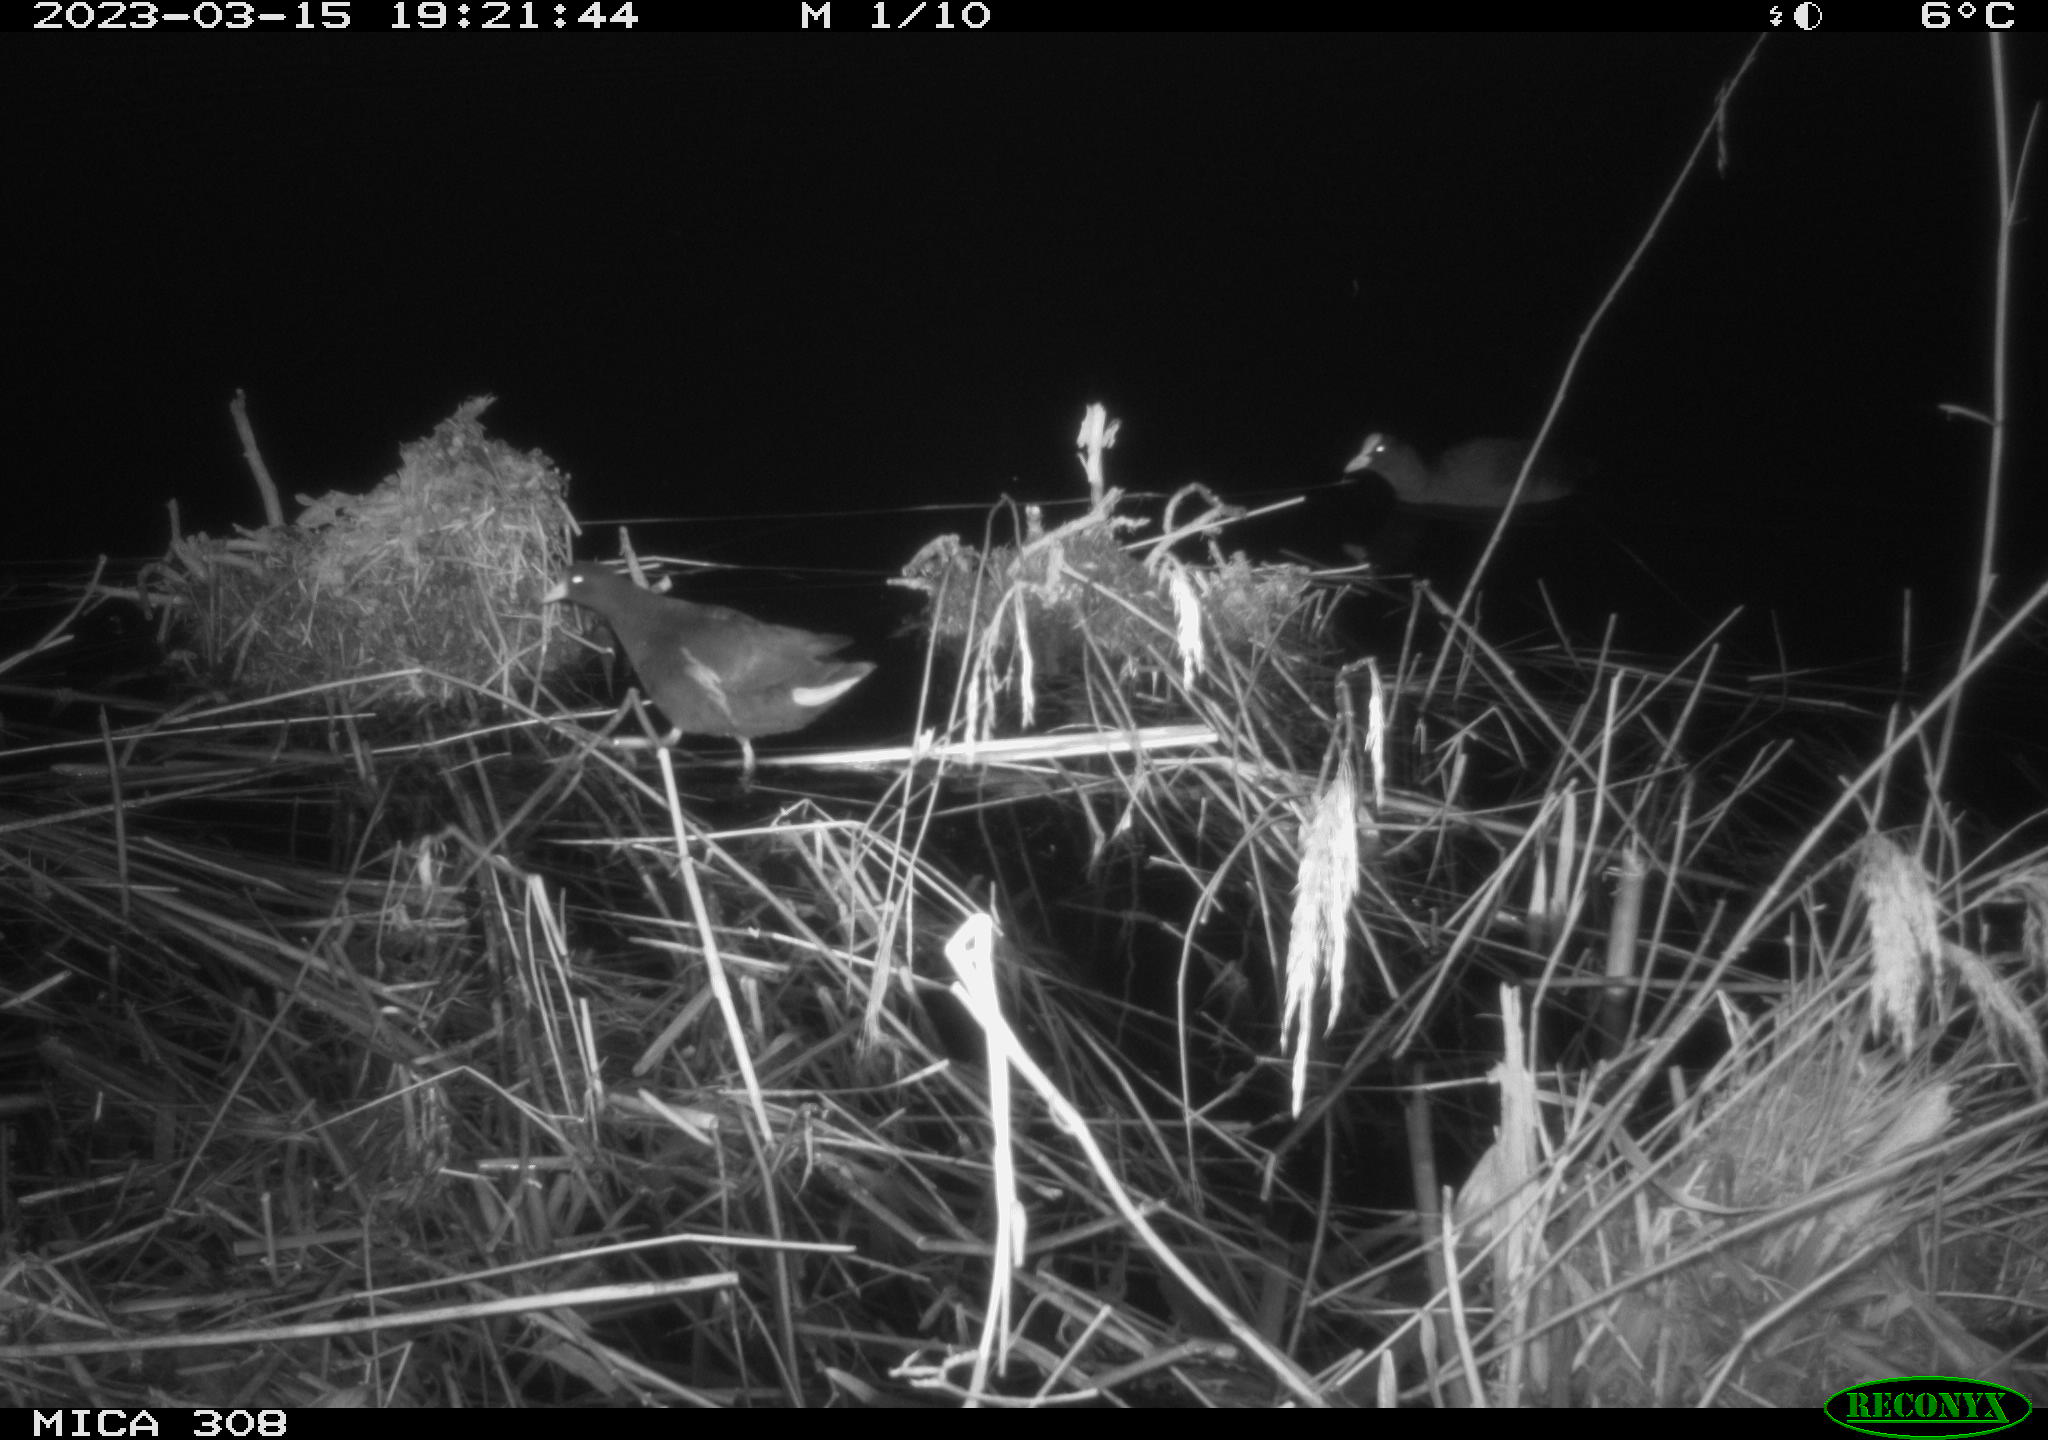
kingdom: Animalia
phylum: Chordata
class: Aves
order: Gruiformes
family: Rallidae
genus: Gallinula
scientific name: Gallinula chloropus
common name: Common moorhen
